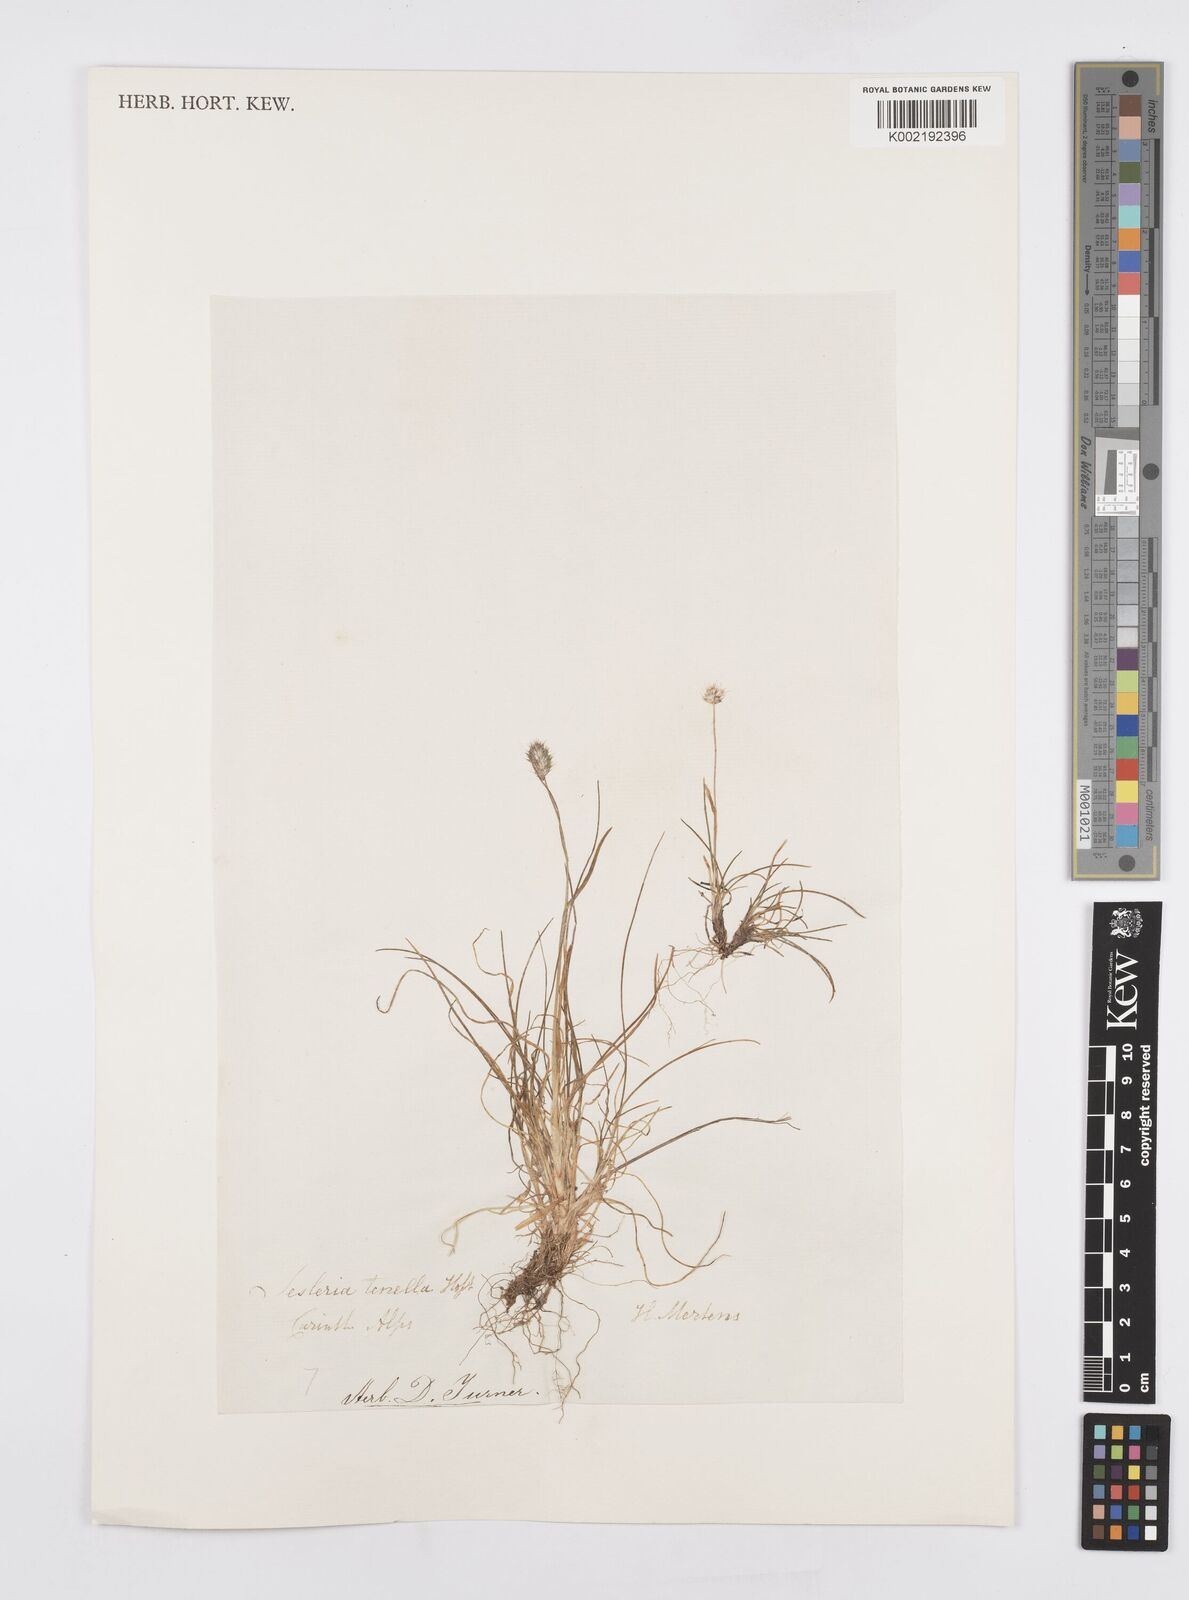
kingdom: Plantae
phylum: Tracheophyta
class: Liliopsida
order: Poales
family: Poaceae
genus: Psilathera
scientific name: Psilathera ovata
